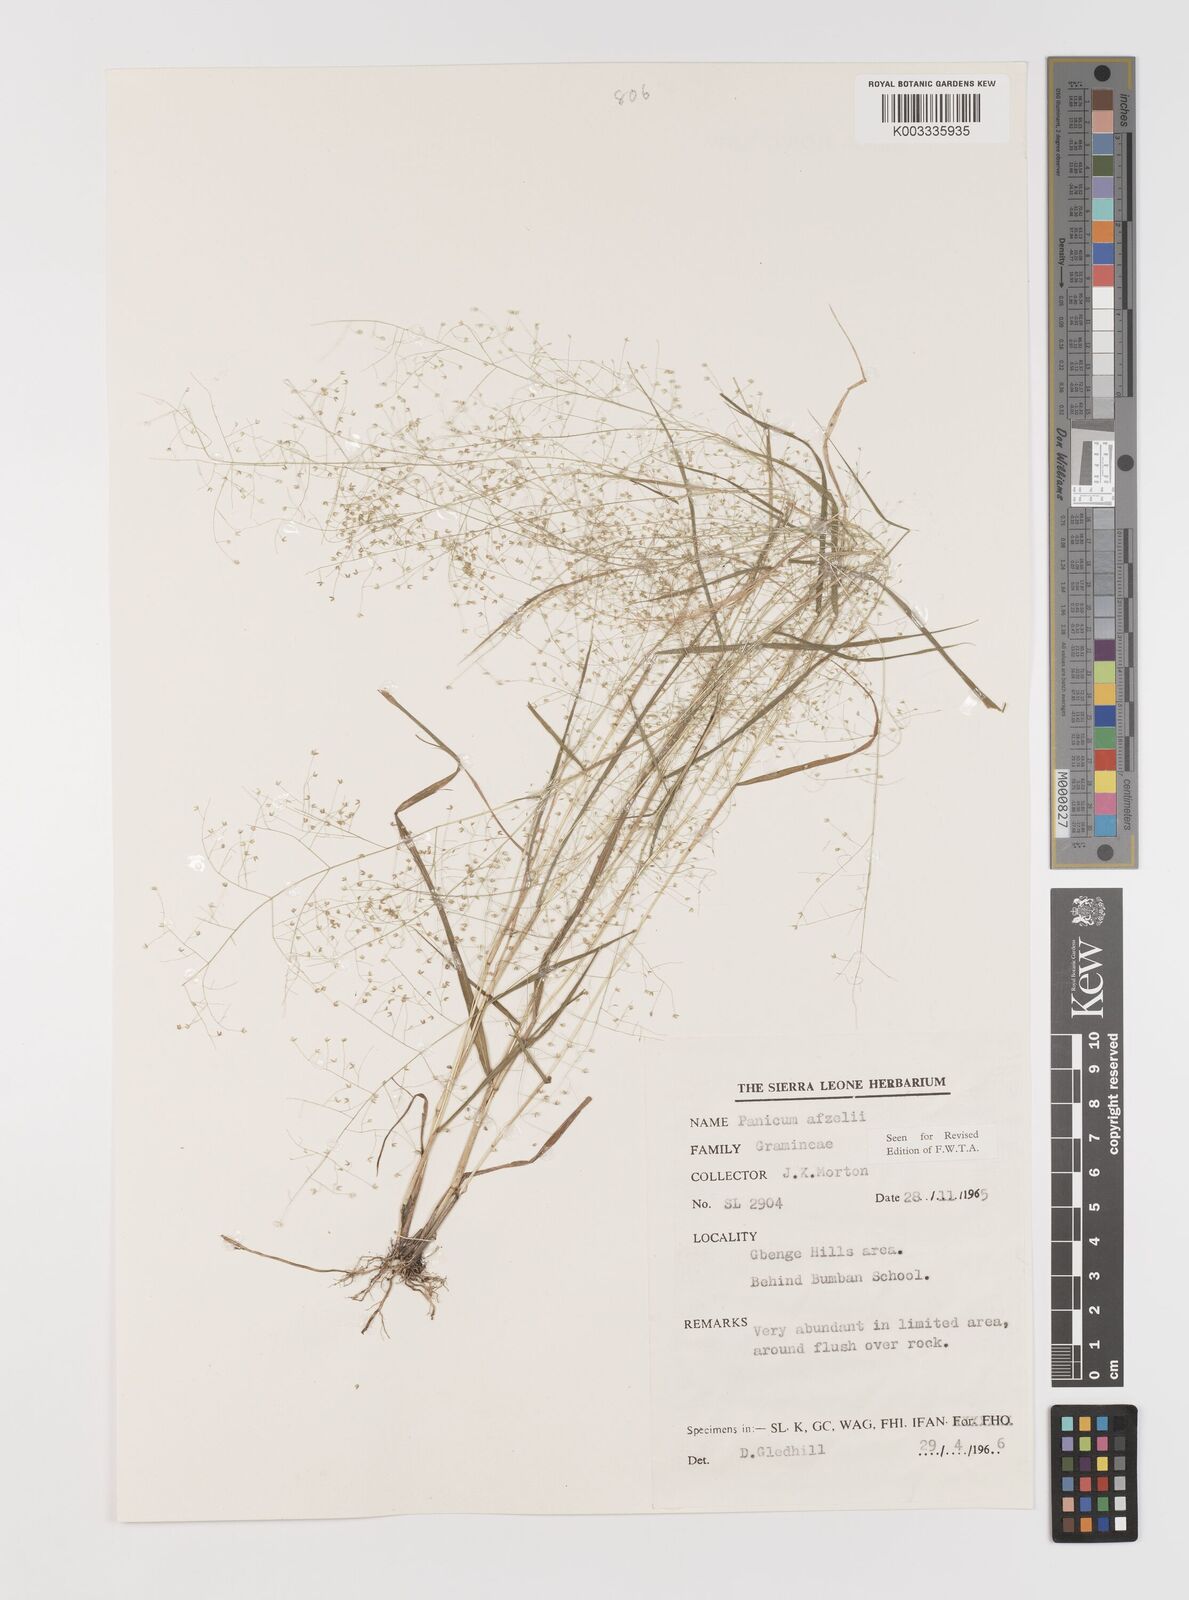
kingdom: Plantae
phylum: Tracheophyta
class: Liliopsida
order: Poales
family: Poaceae
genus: Panicum
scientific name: Panicum afzelii
